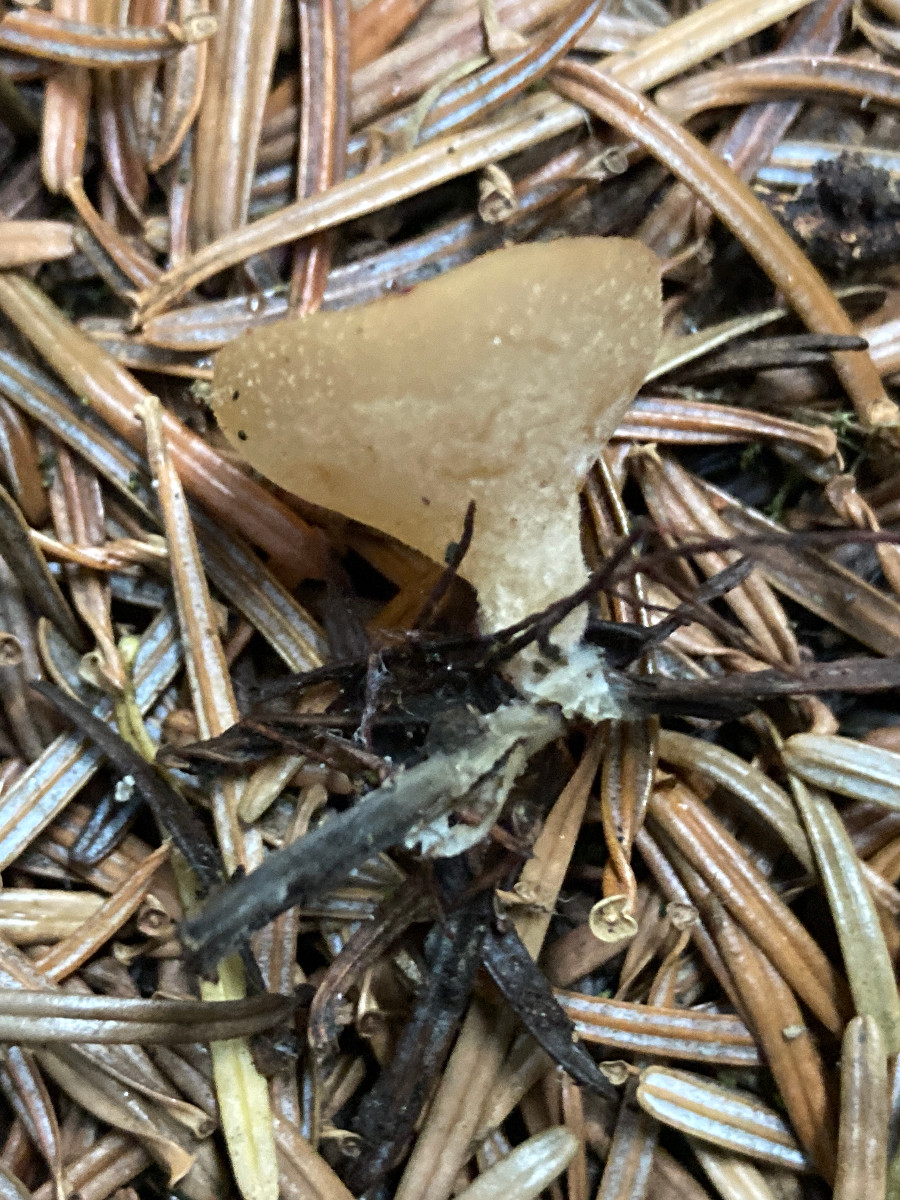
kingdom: Fungi
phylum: Ascomycota
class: Pezizomycetes
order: Pezizales
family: Pezizaceae
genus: Peziza
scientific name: Peziza
